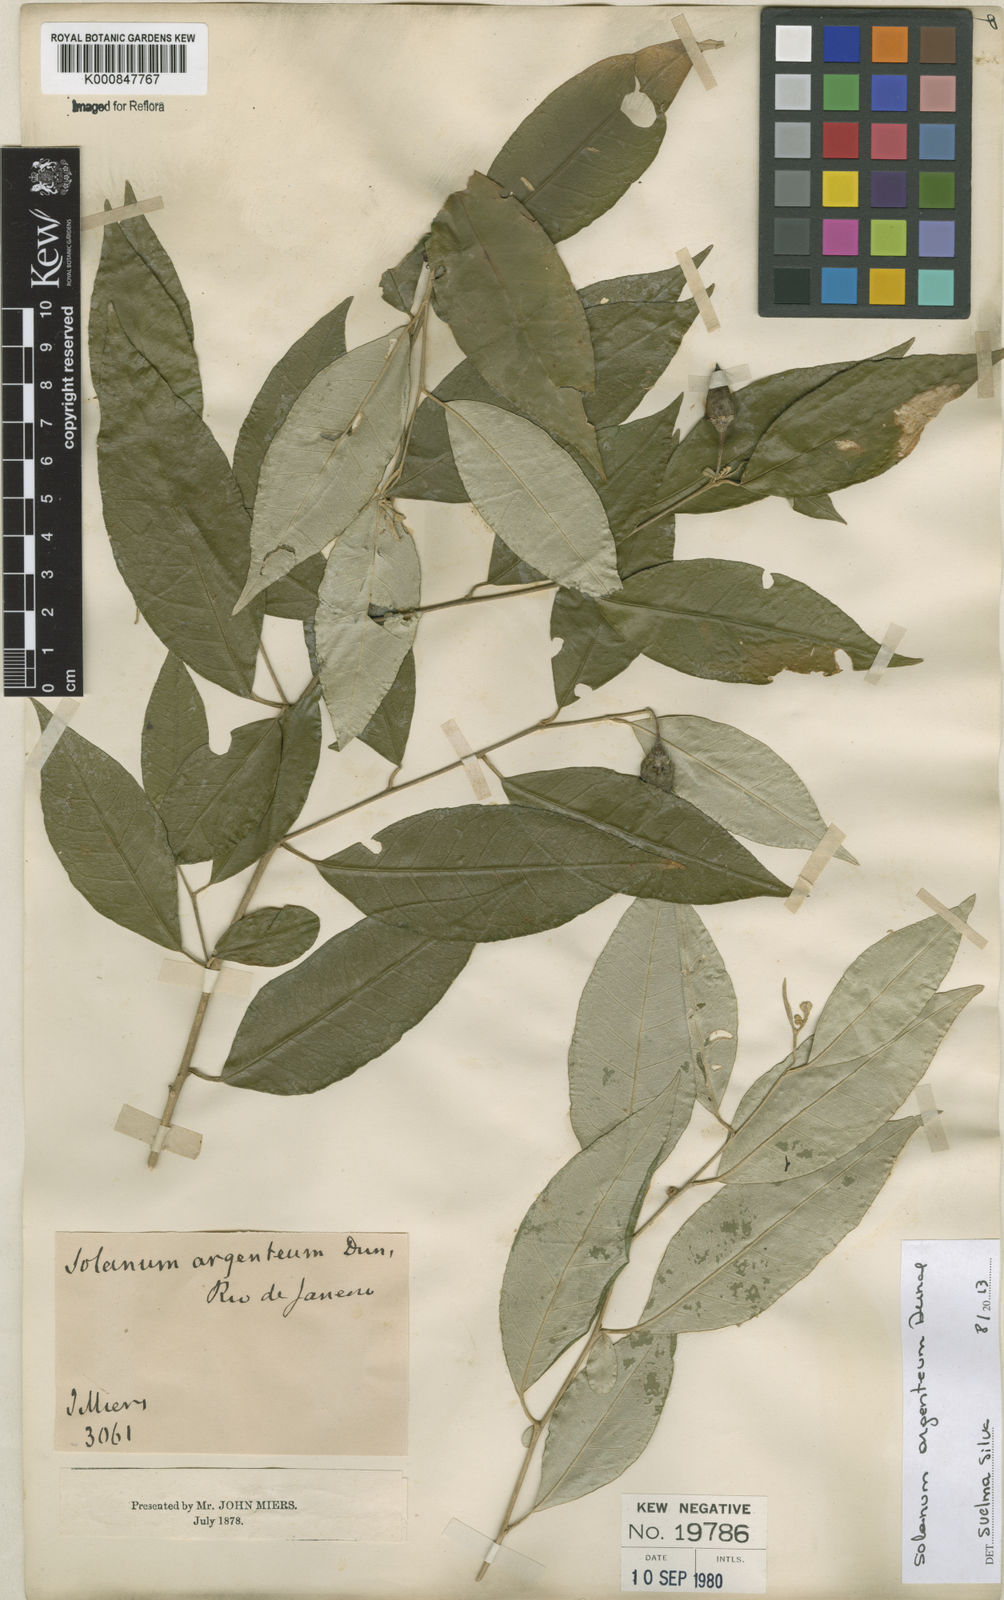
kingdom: Plantae
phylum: Tracheophyta
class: Magnoliopsida
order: Solanales
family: Solanaceae
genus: Solanum
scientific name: Solanum swartzianum
